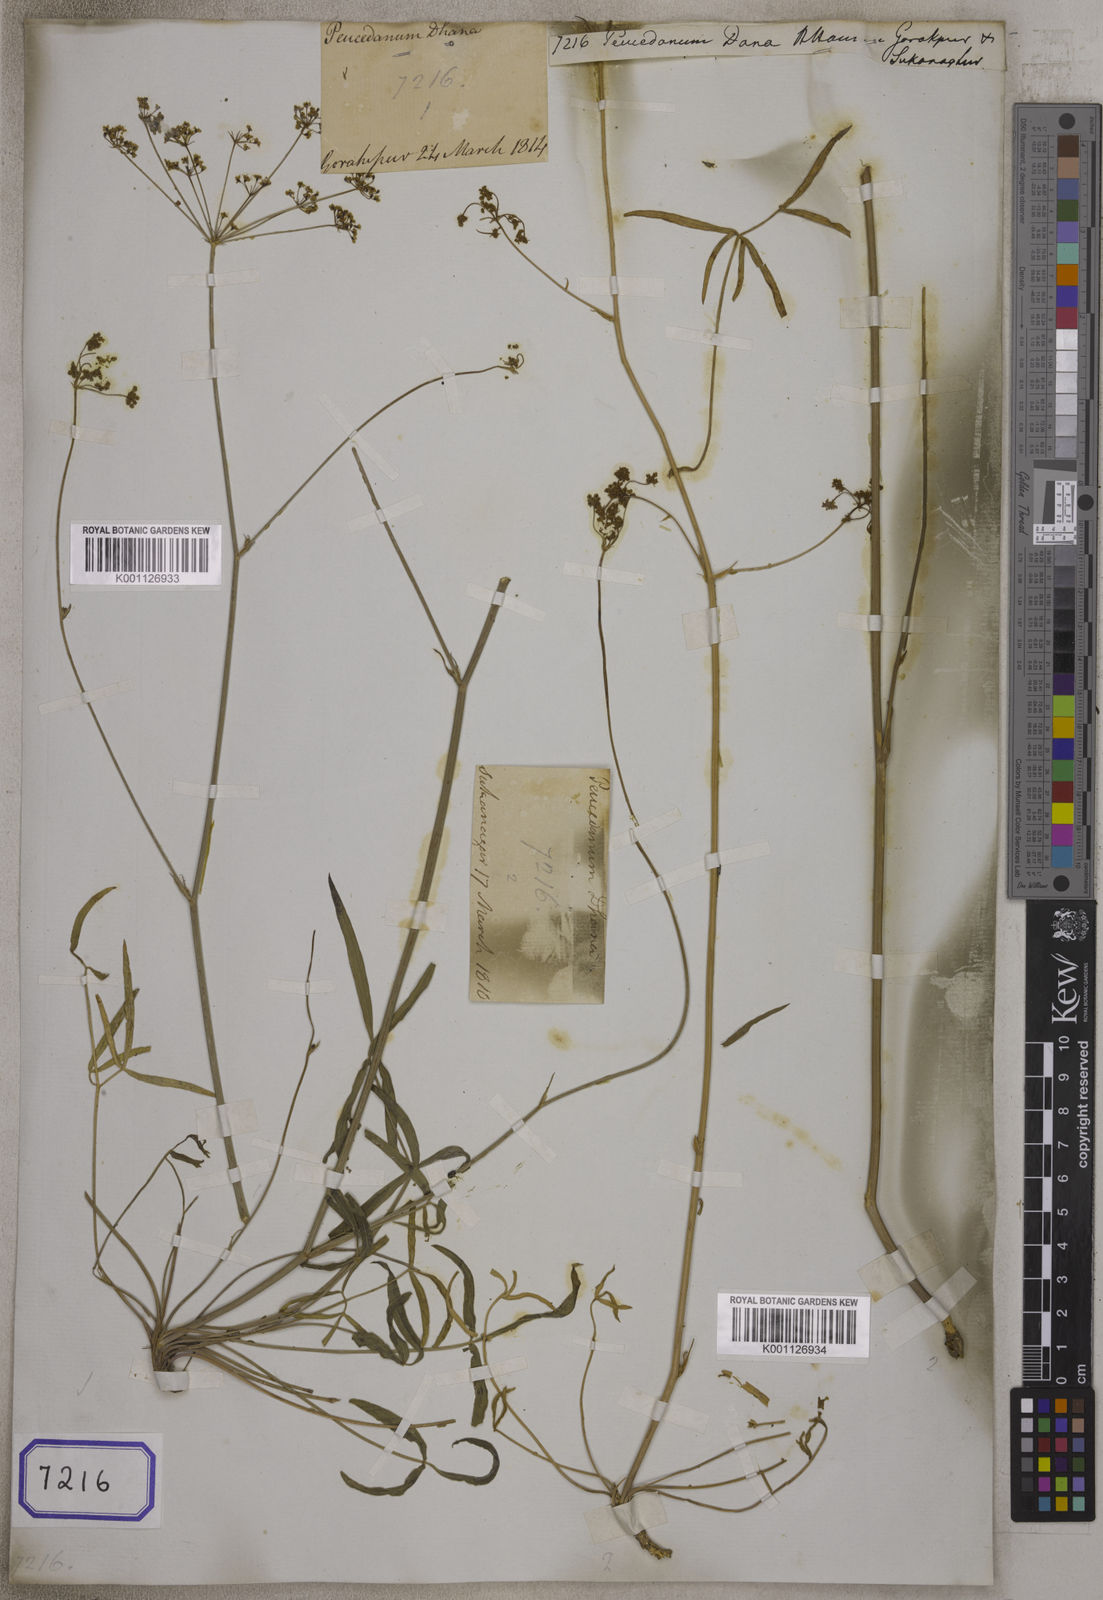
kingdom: Plantae
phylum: Tracheophyta
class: Magnoliopsida
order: Apiales
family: Apiaceae
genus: Peucedanum
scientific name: Peucedanum dhana
